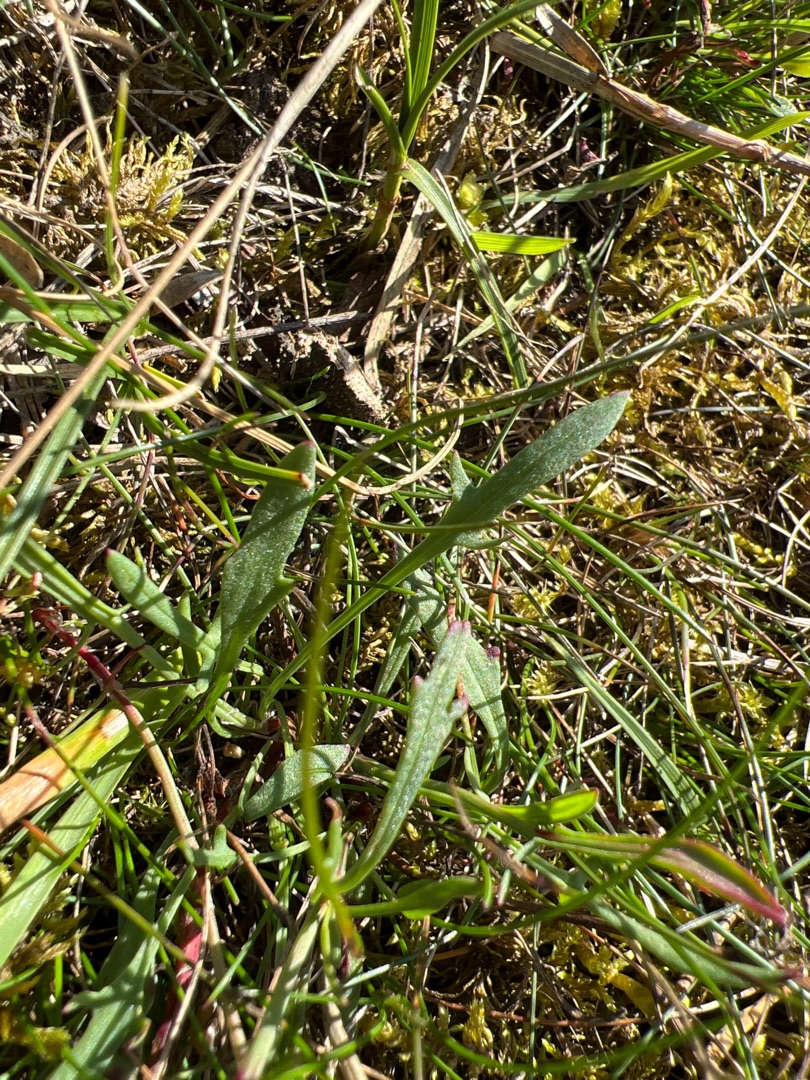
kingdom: Plantae
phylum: Tracheophyta
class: Magnoliopsida
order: Caryophyllales
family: Polygonaceae
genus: Rumex
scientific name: Rumex acetosella
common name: Rødknæ
